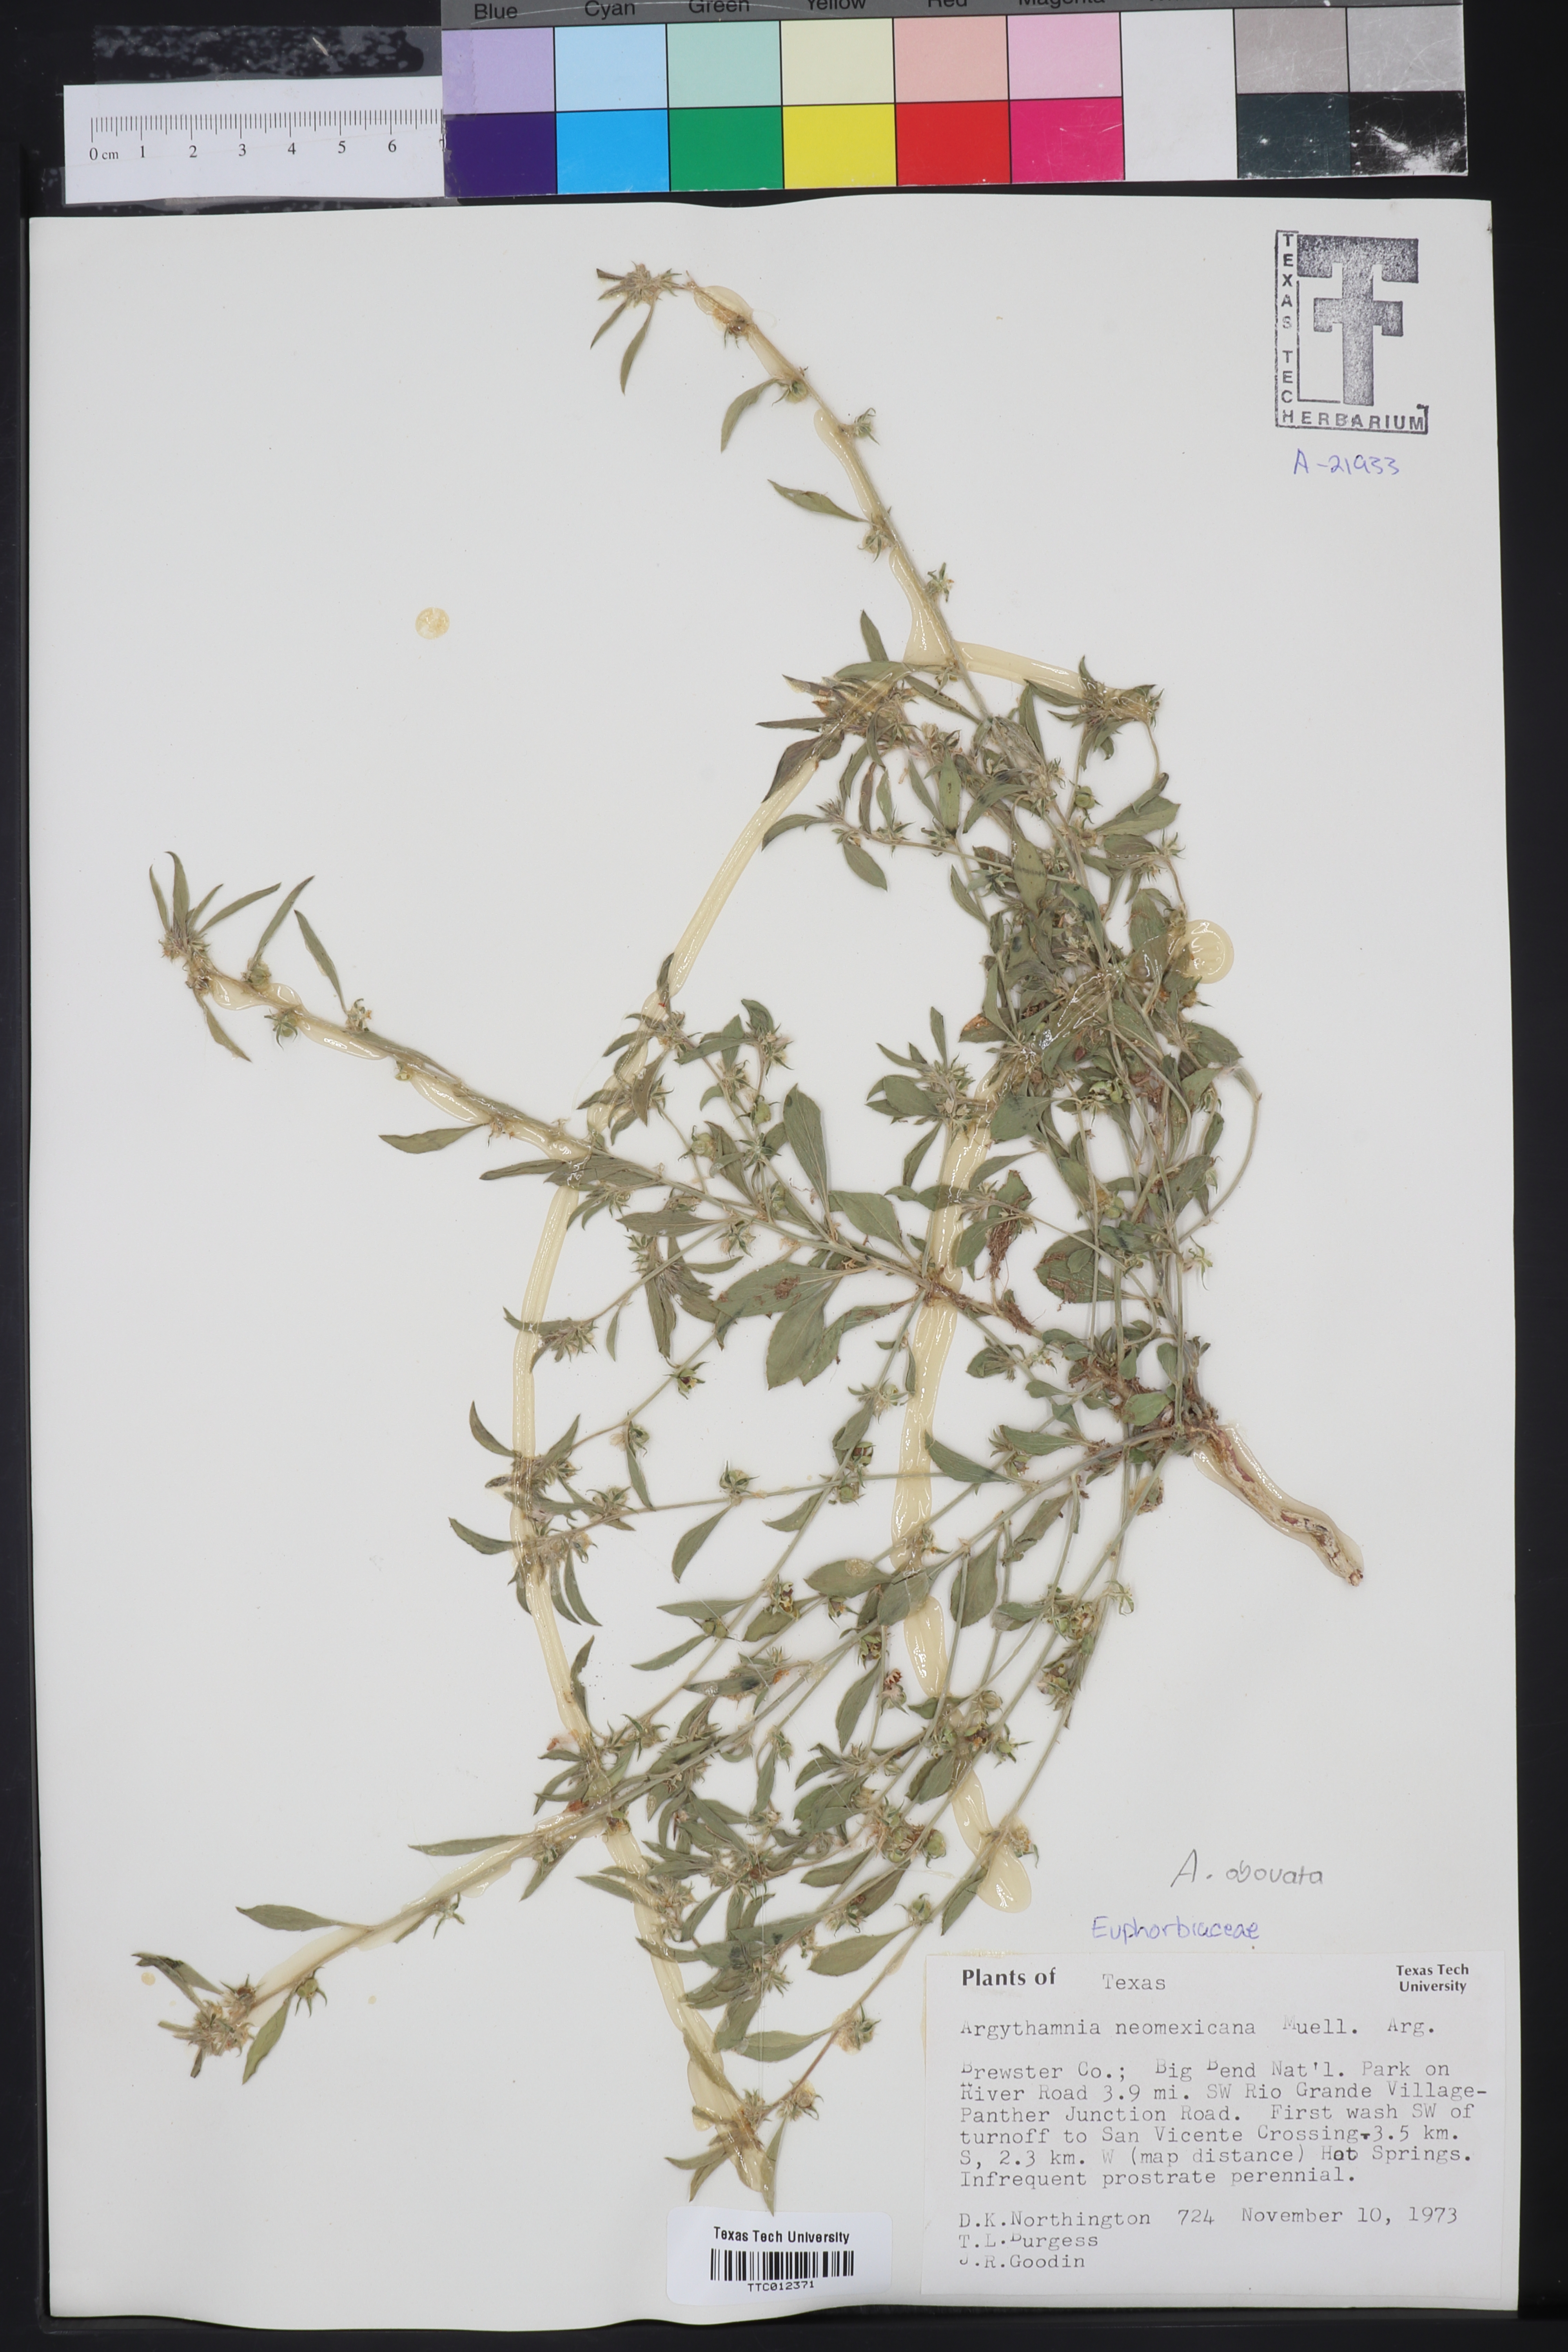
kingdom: Plantae
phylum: Tracheophyta
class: Magnoliopsida
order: Malpighiales
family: Euphorbiaceae
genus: Ditaxis
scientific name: Ditaxis serrata
